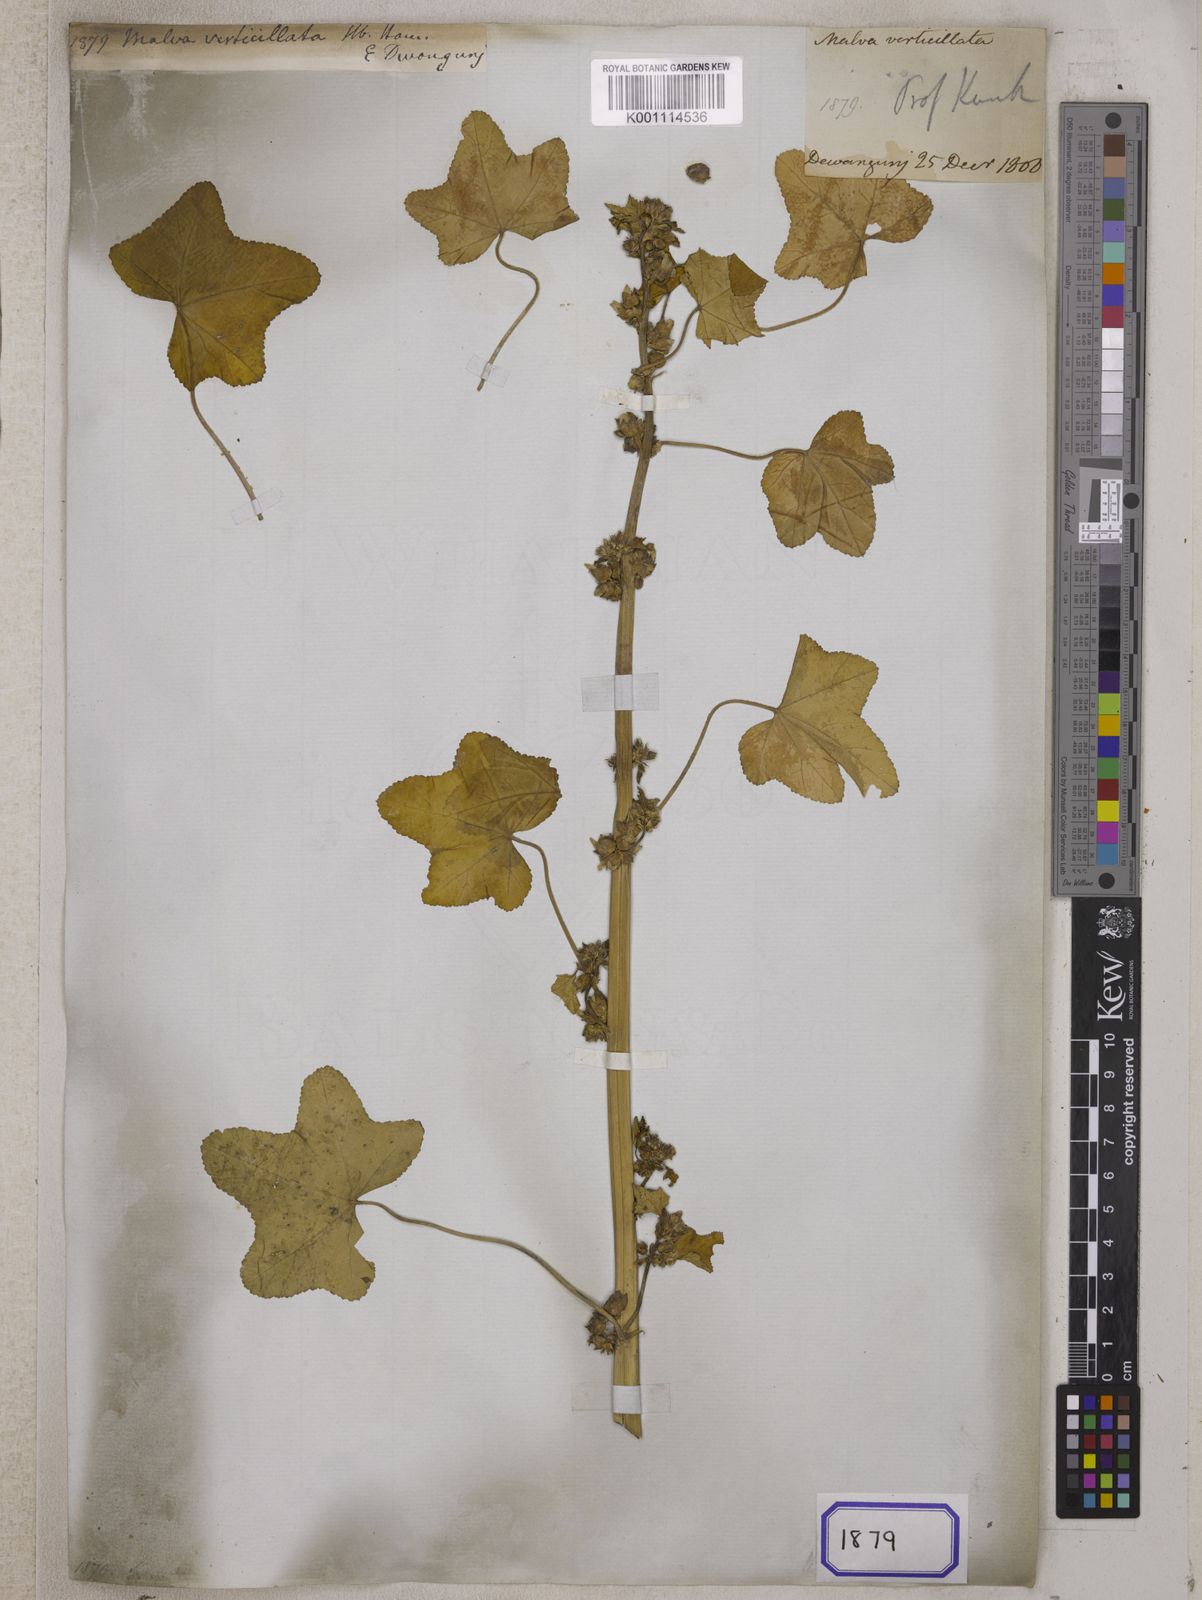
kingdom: Plantae
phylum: Tracheophyta
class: Magnoliopsida
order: Malvales
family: Malvaceae
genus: Malva
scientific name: Malva verticillata
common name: Chinese mallow
